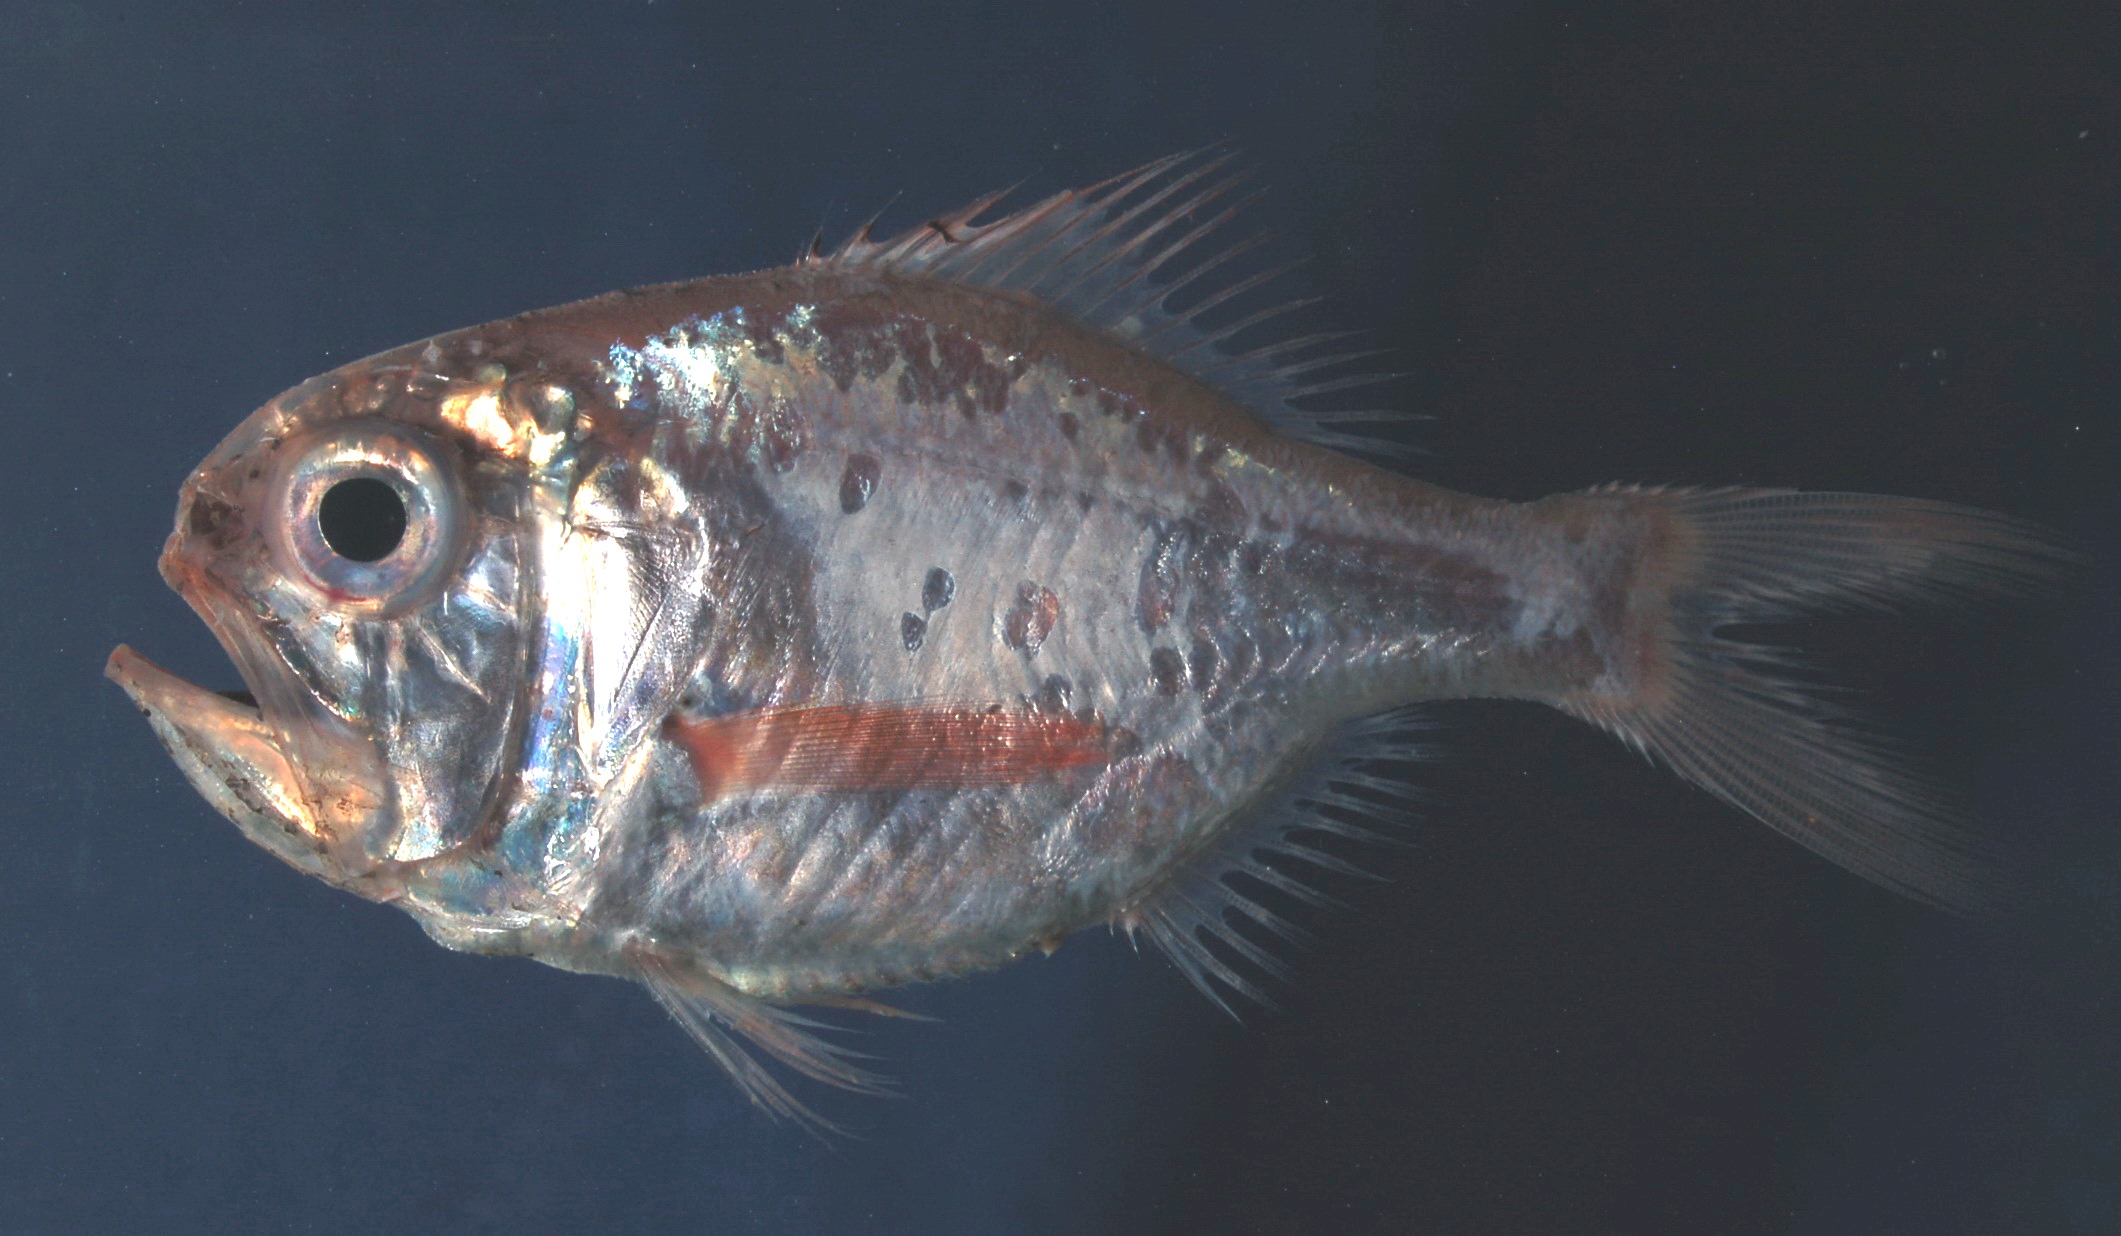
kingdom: Animalia
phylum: Chordata
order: Beryciformes
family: Trachichthyidae
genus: Hoplostethus
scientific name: Hoplostethus mediterraneus
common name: Rough-fish
